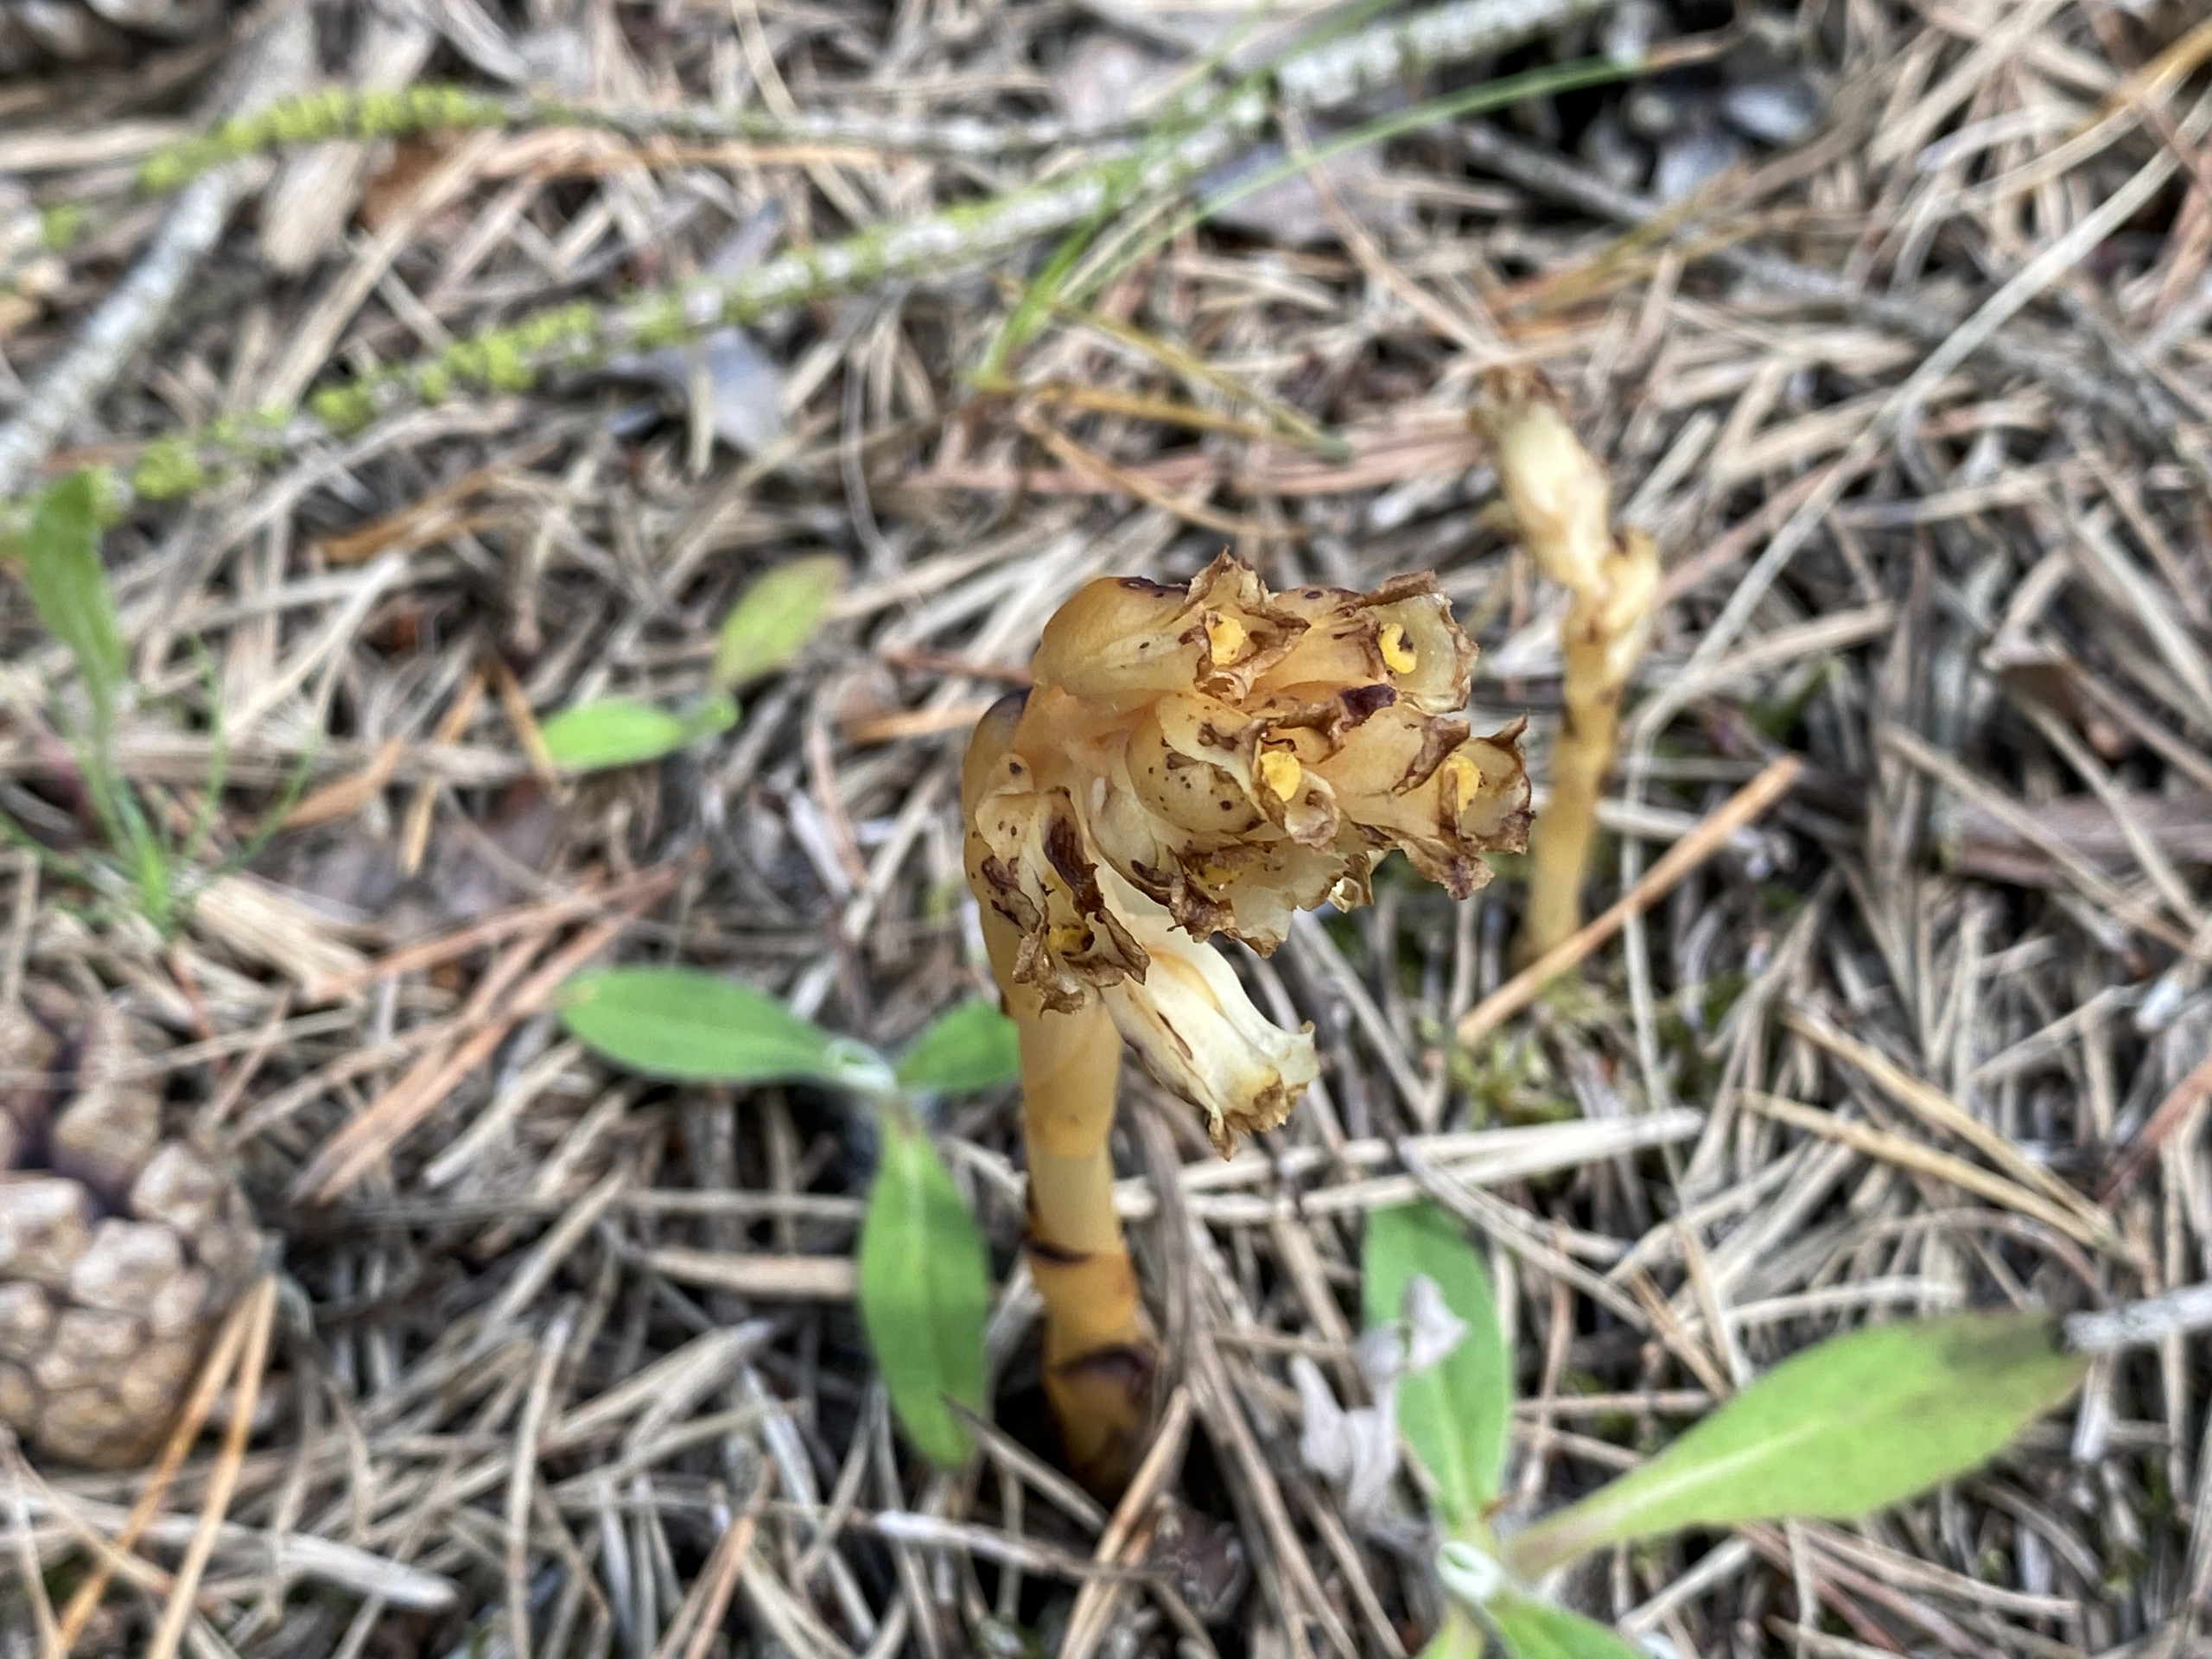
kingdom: Plantae
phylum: Tracheophyta
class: Magnoliopsida
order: Ericales
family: Ericaceae
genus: Hypopitys
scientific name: Hypopitys hypophegea
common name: Glat snylterod
